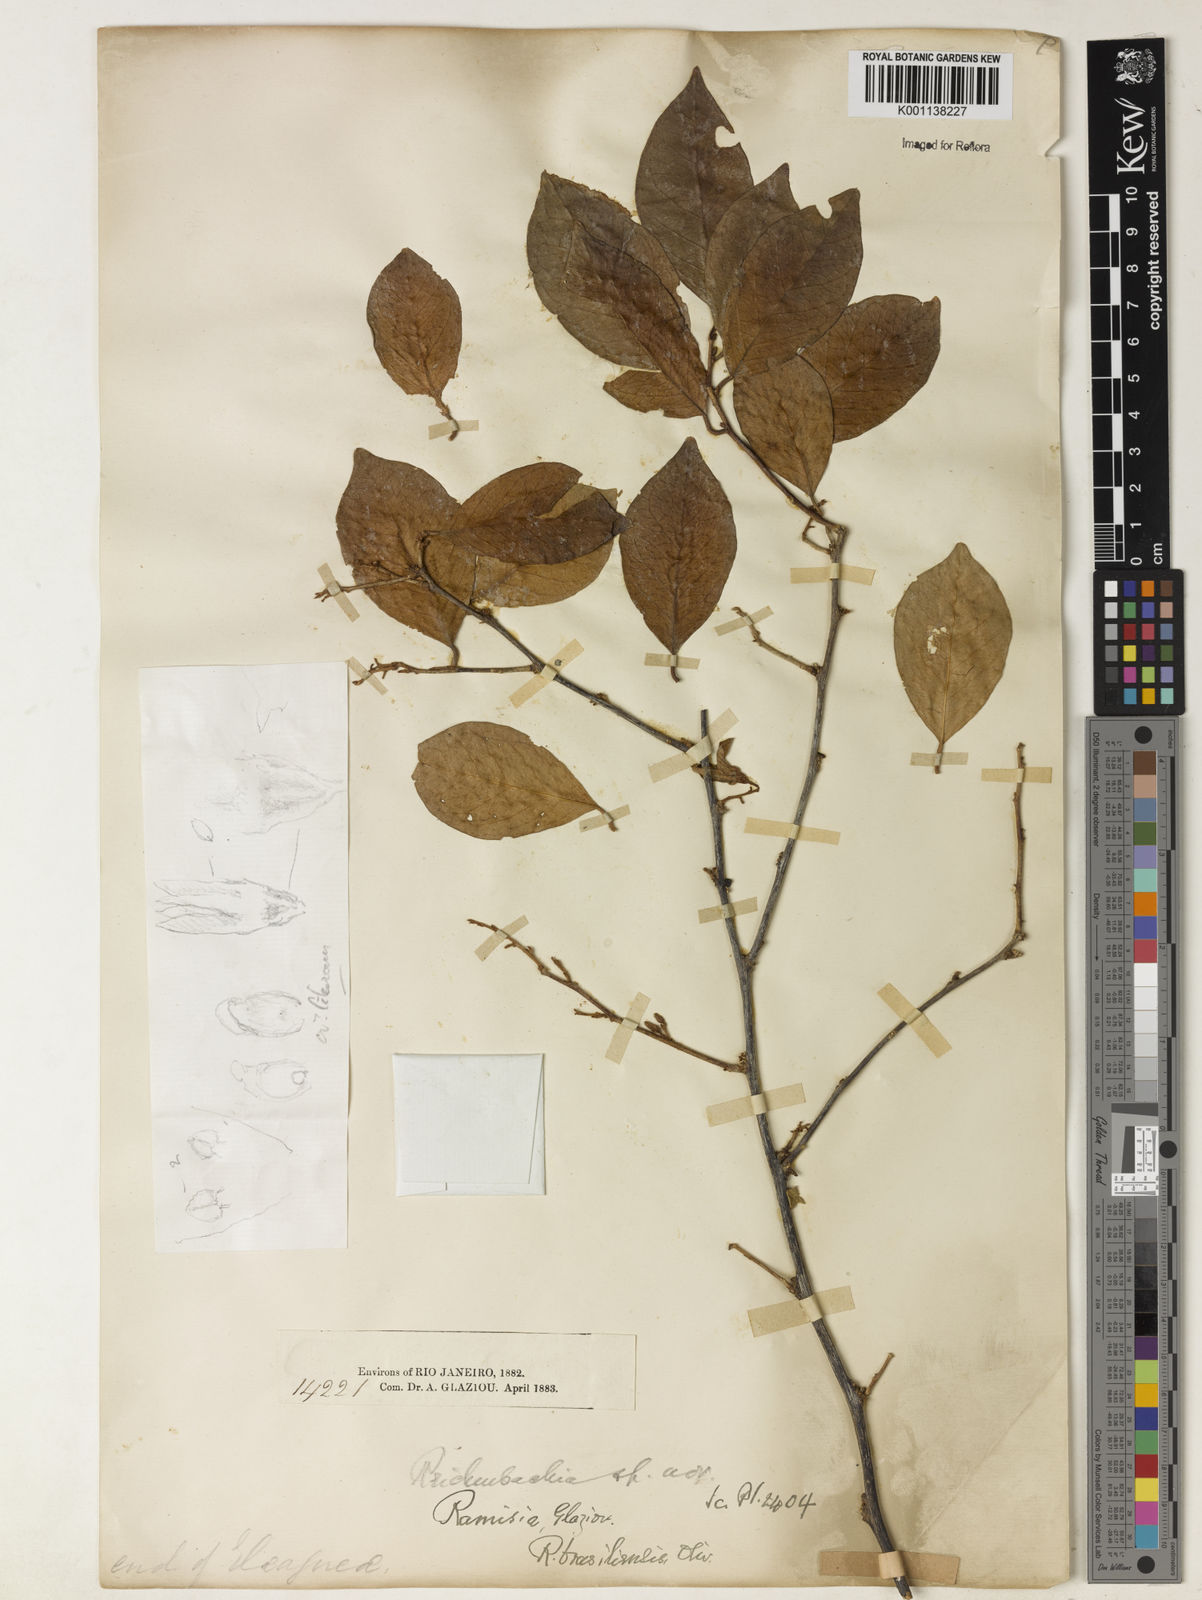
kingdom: Plantae
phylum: Tracheophyta
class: Magnoliopsida
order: Caryophyllales
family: Nyctaginaceae
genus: Ramisia
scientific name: Ramisia brasiliensis
